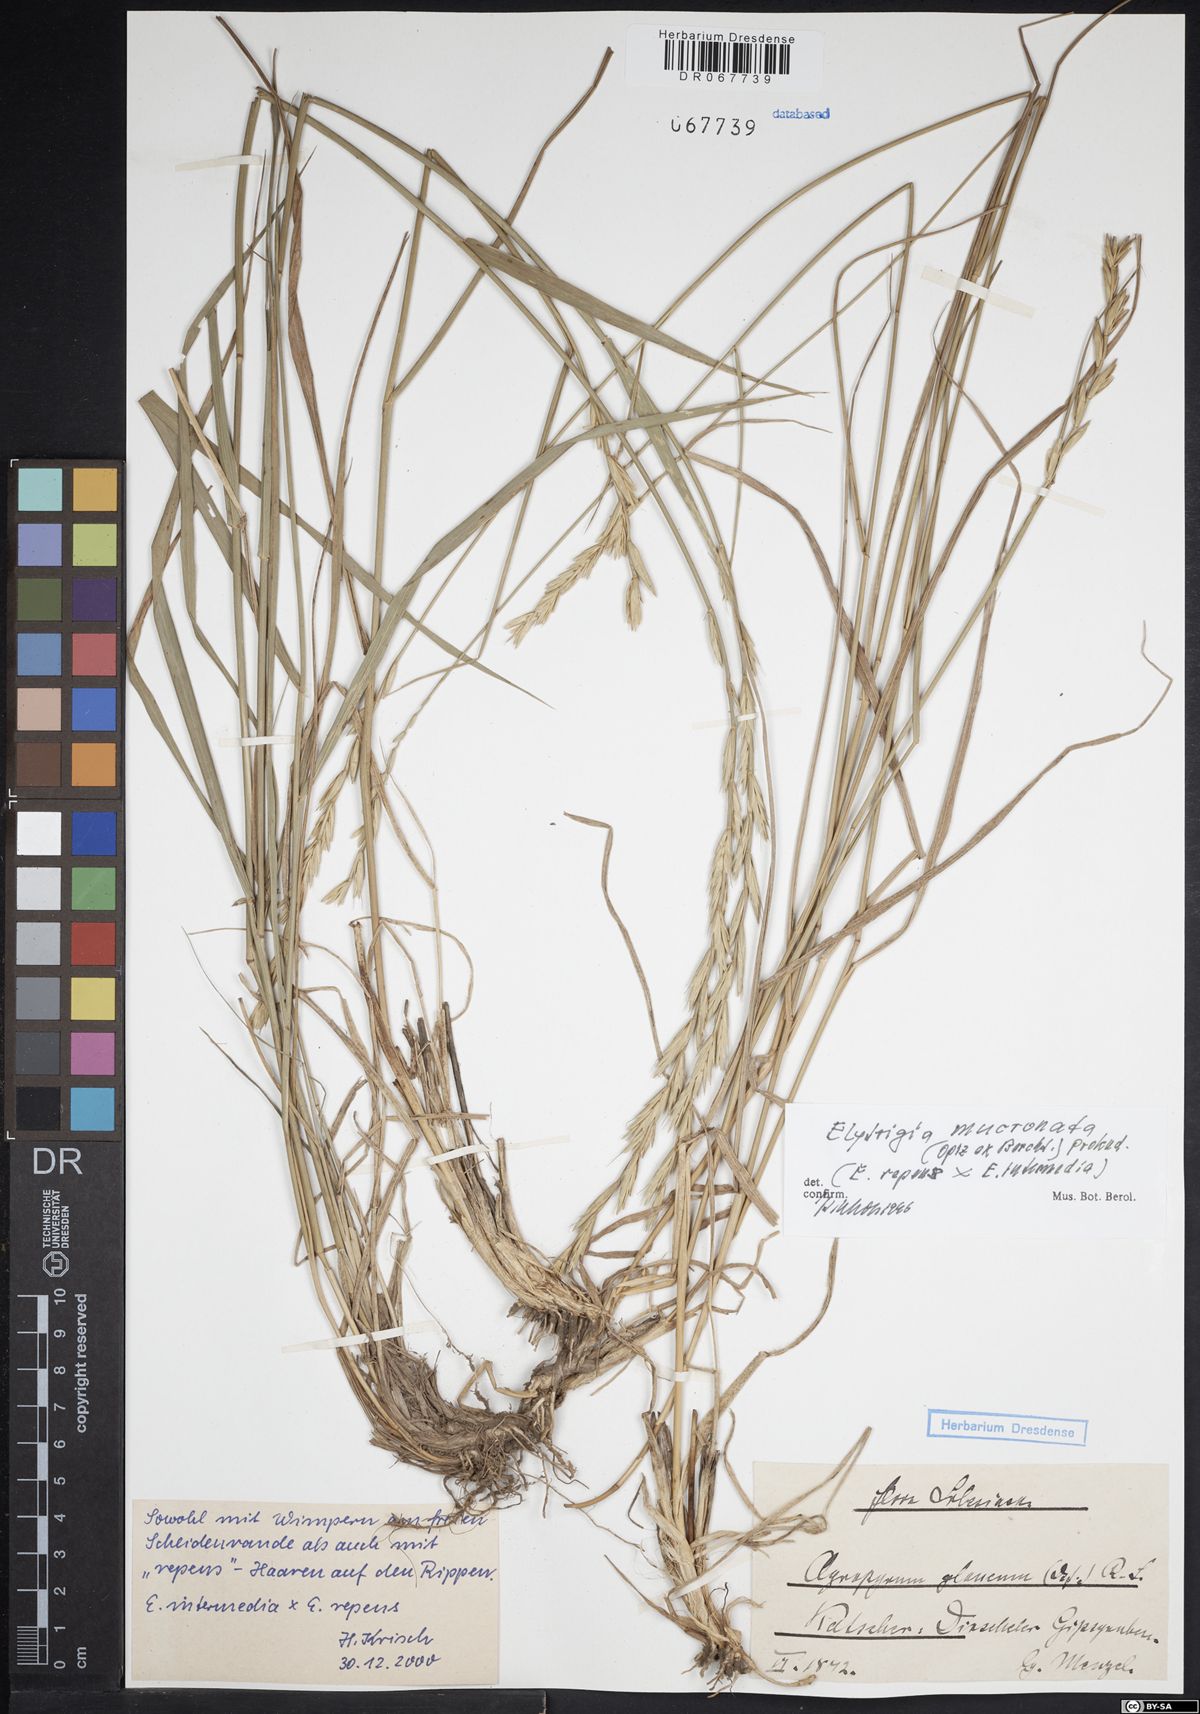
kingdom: Plantae
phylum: Tracheophyta
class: Liliopsida
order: Poales
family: Poaceae
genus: Thinoelymus
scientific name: Thinoelymus mucronatus
